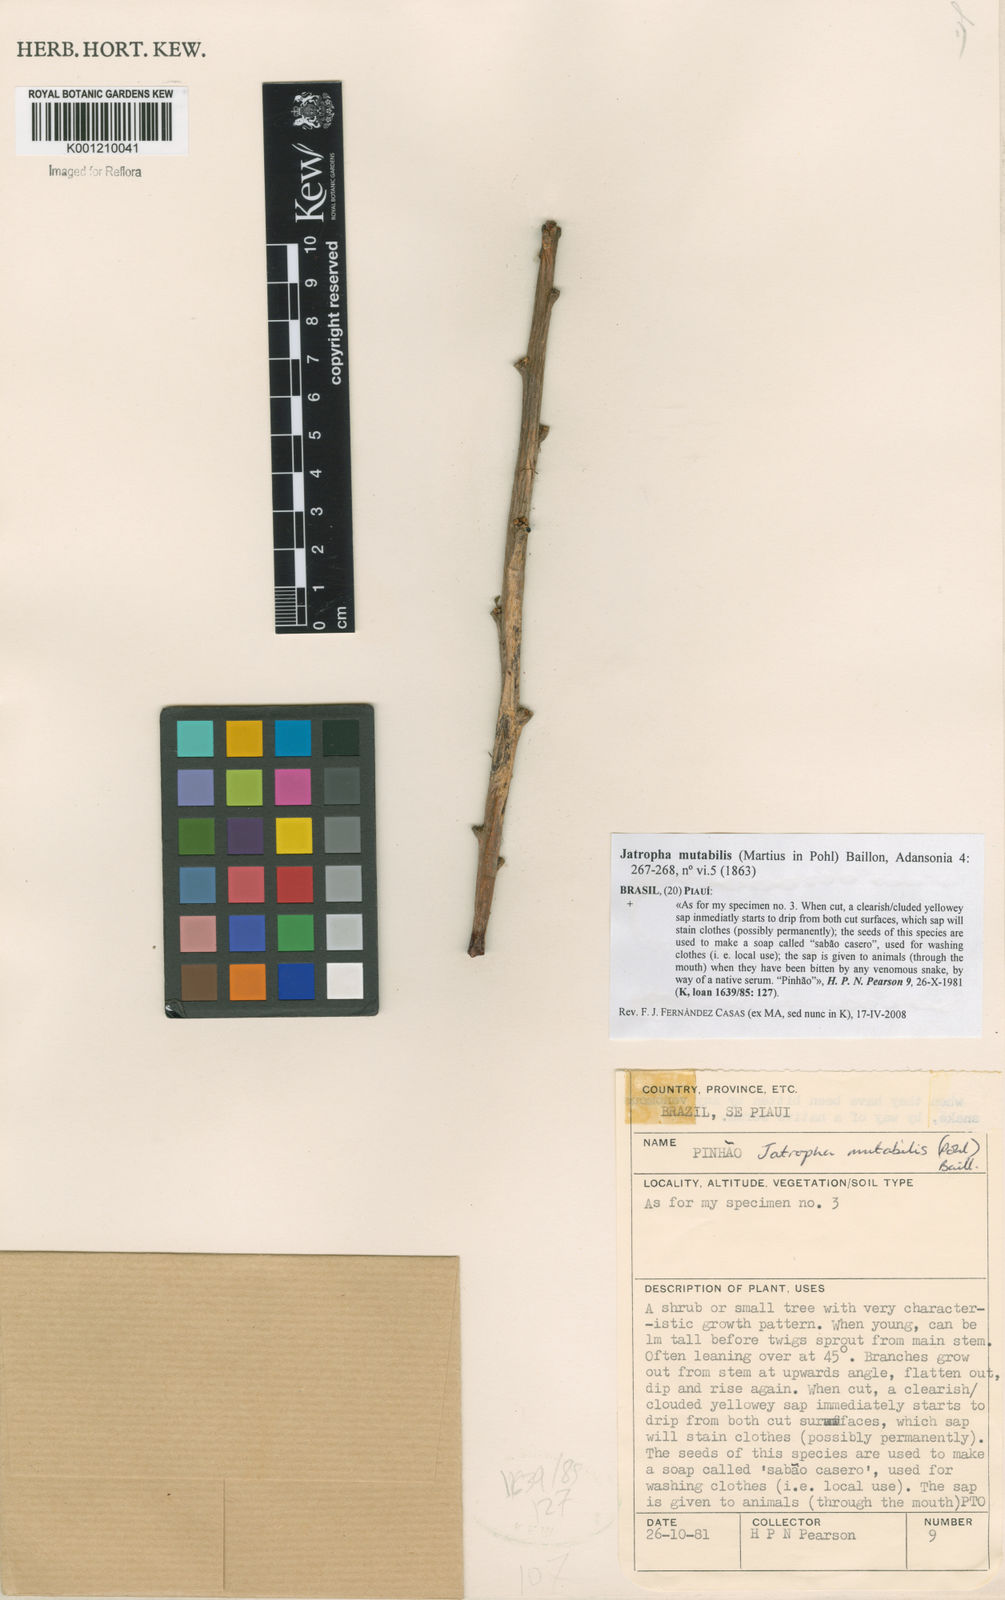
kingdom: Plantae
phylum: Tracheophyta
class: Magnoliopsida
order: Malpighiales
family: Euphorbiaceae
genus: Jatropha
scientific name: Jatropha mutabilis
